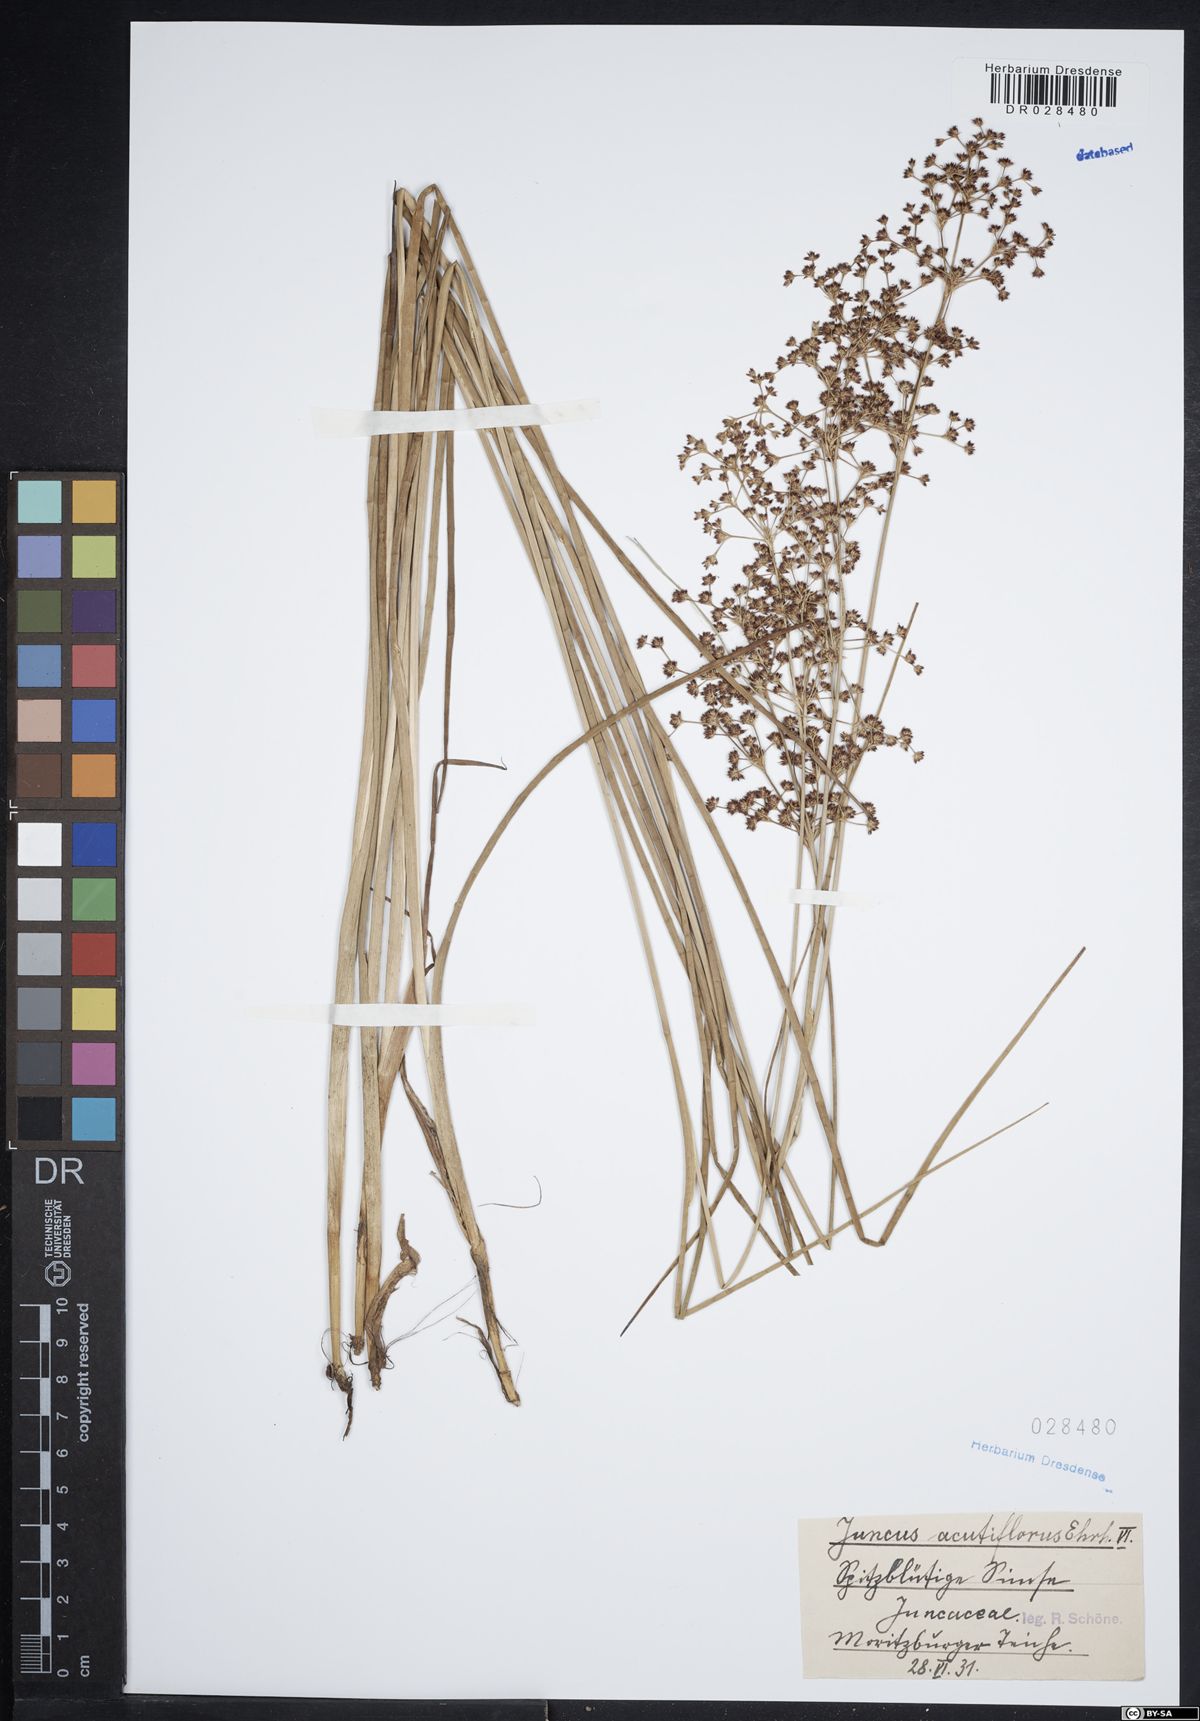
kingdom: Plantae
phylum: Tracheophyta
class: Liliopsida
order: Poales
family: Juncaceae
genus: Juncus
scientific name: Juncus acutiflorus
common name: Sharp-flowered rush
